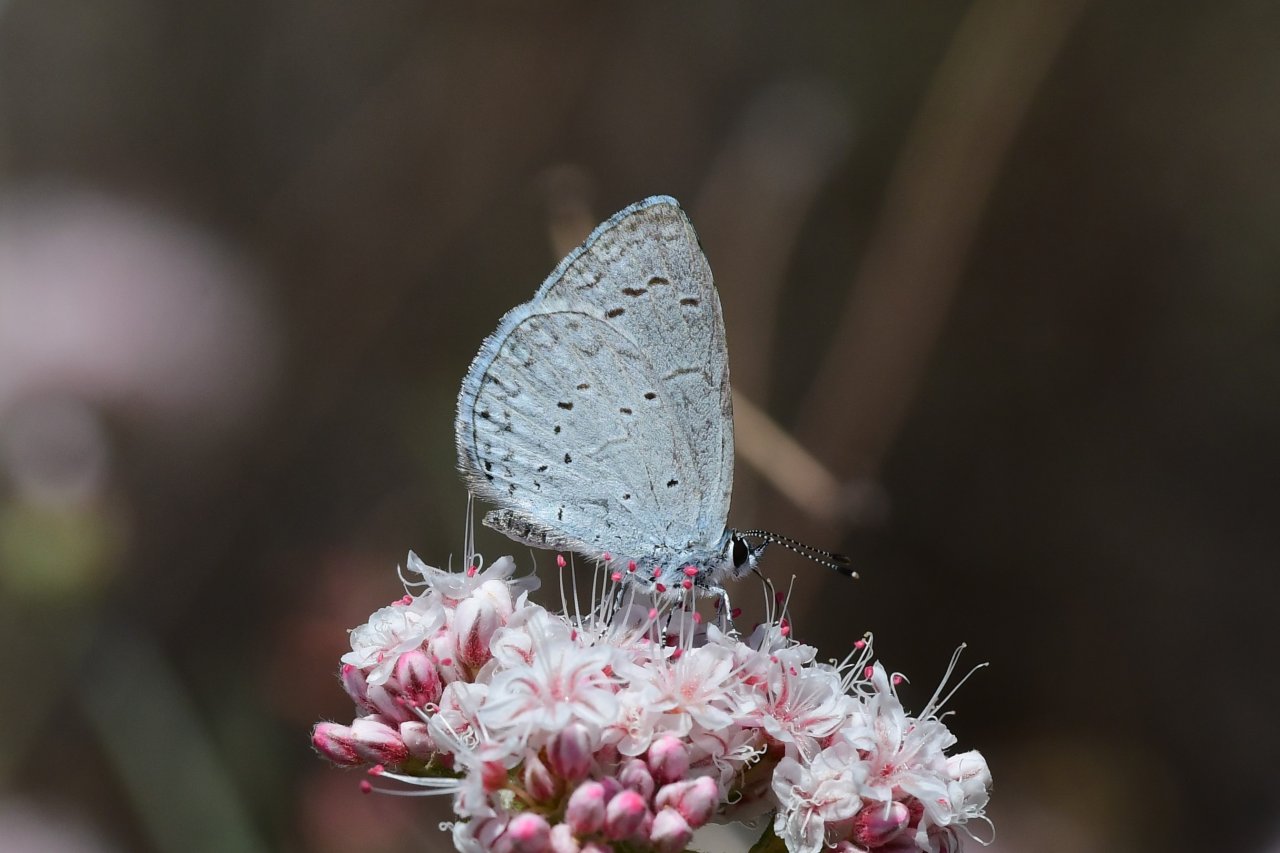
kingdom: Animalia
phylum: Arthropoda
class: Insecta
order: Lepidoptera
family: Lycaenidae
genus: Celastrina
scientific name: Celastrina ladon
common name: Echo Azure
